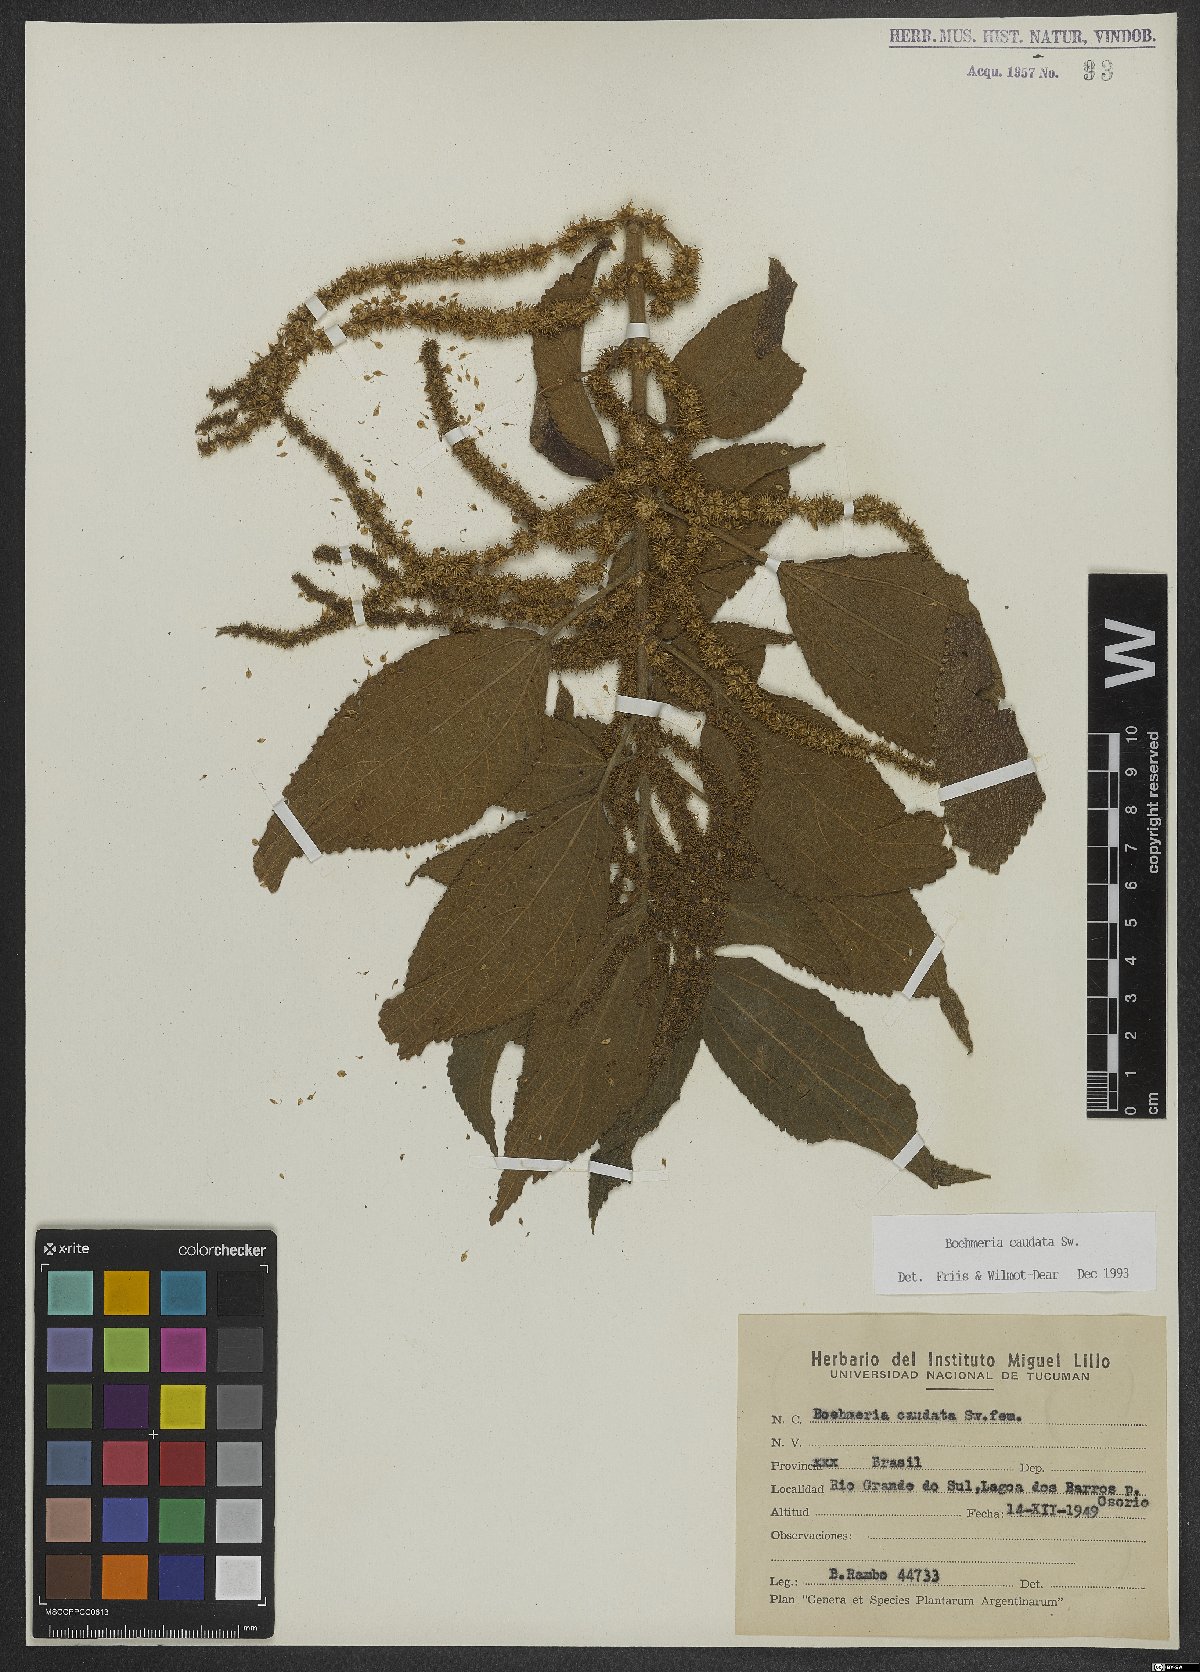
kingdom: Plantae
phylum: Tracheophyta
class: Magnoliopsida
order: Rosales
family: Urticaceae
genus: Boehmeria
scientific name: Boehmeria caudata
